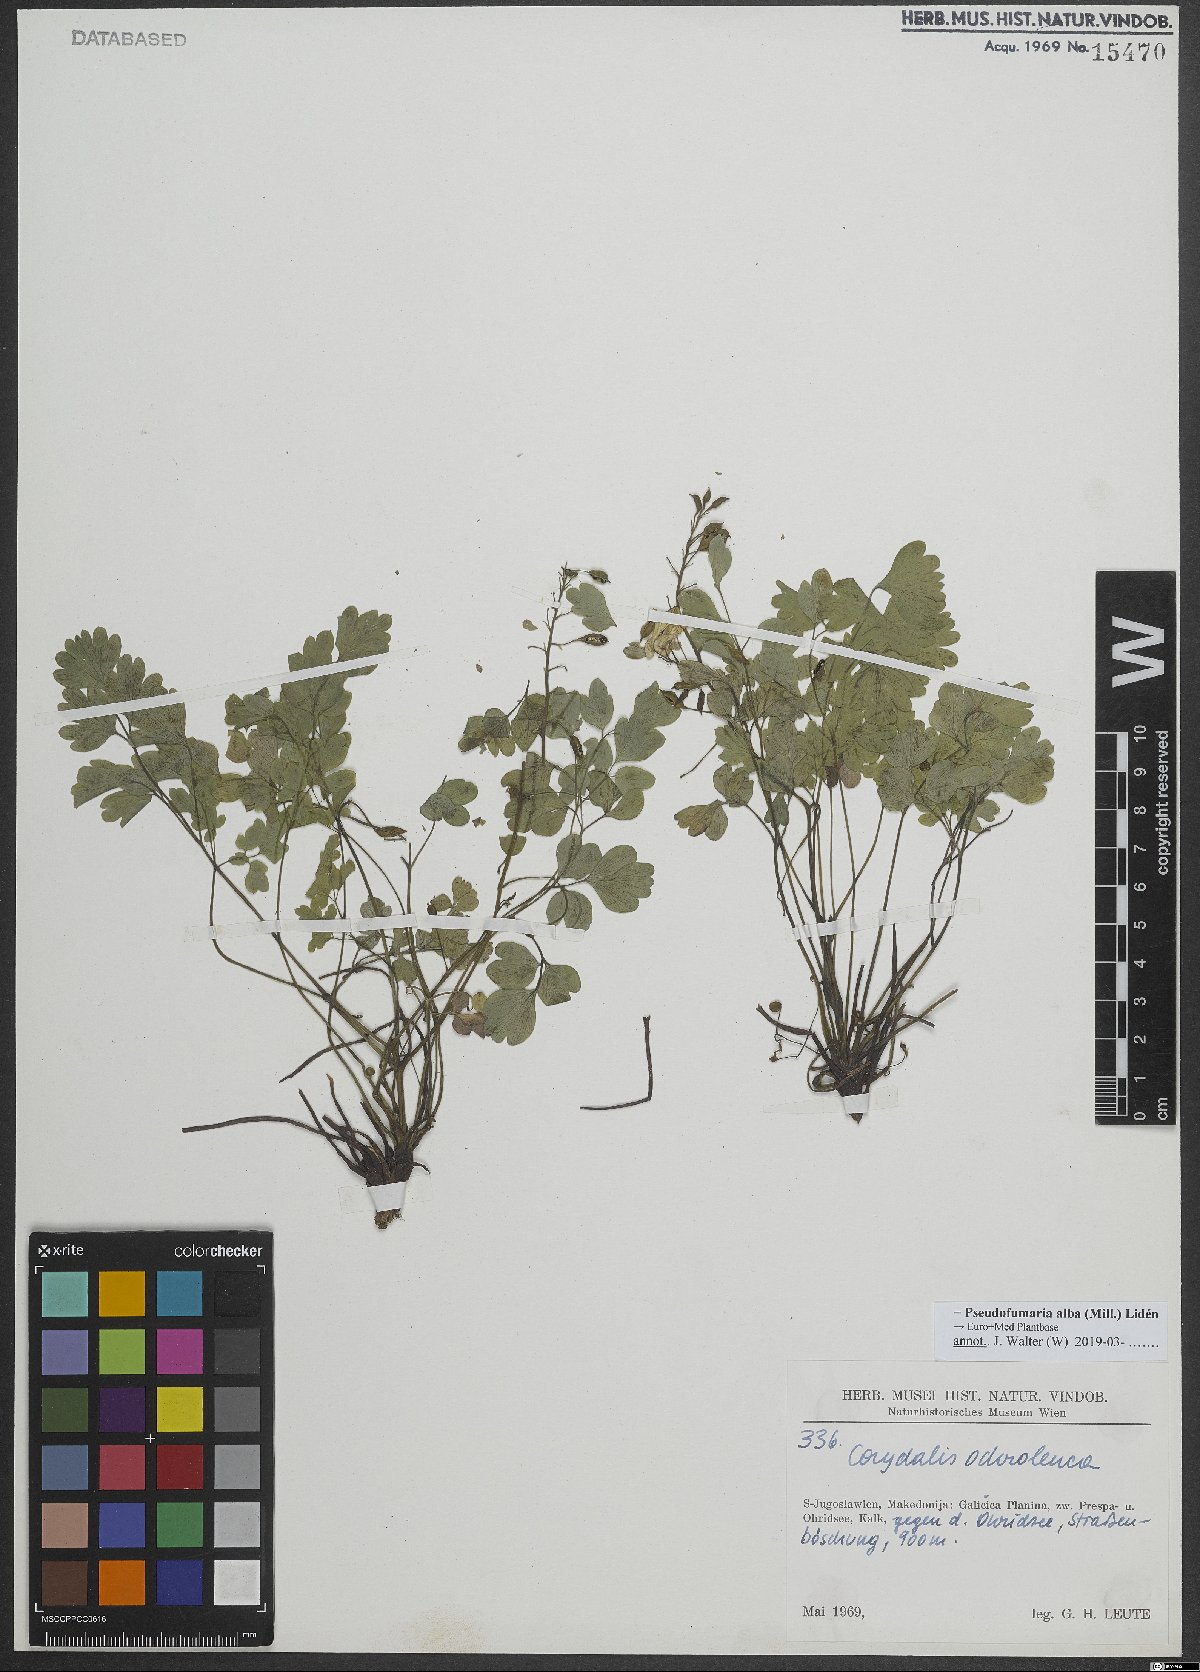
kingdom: Plantae
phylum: Tracheophyta
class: Magnoliopsida
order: Ranunculales
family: Papaveraceae
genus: Pseudofumaria
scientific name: Pseudofumaria alba
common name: Pale corydalis
